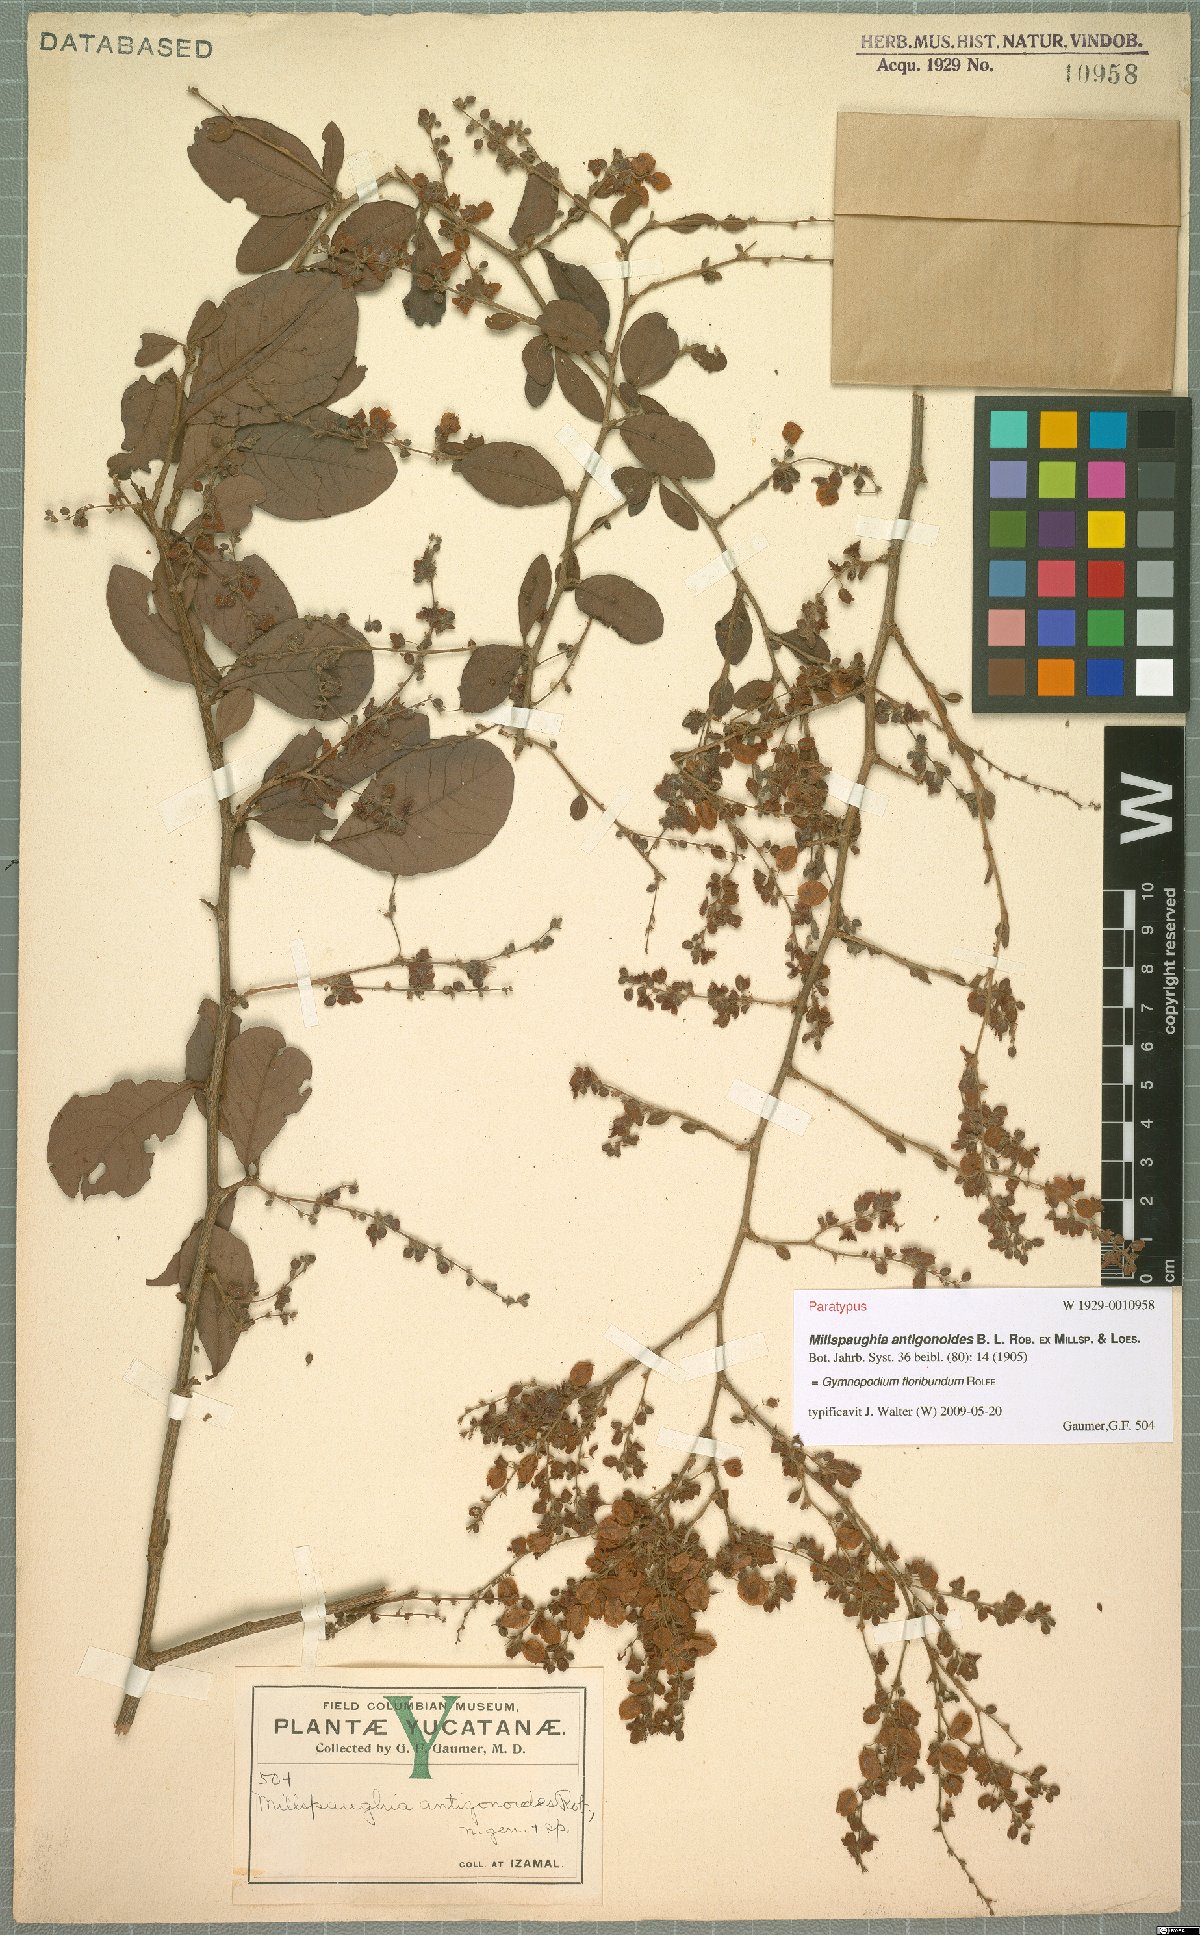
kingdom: Plantae
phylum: Tracheophyta
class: Magnoliopsida
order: Caryophyllales
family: Polygonaceae
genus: Gymnopodium
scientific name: Gymnopodium floribundum
